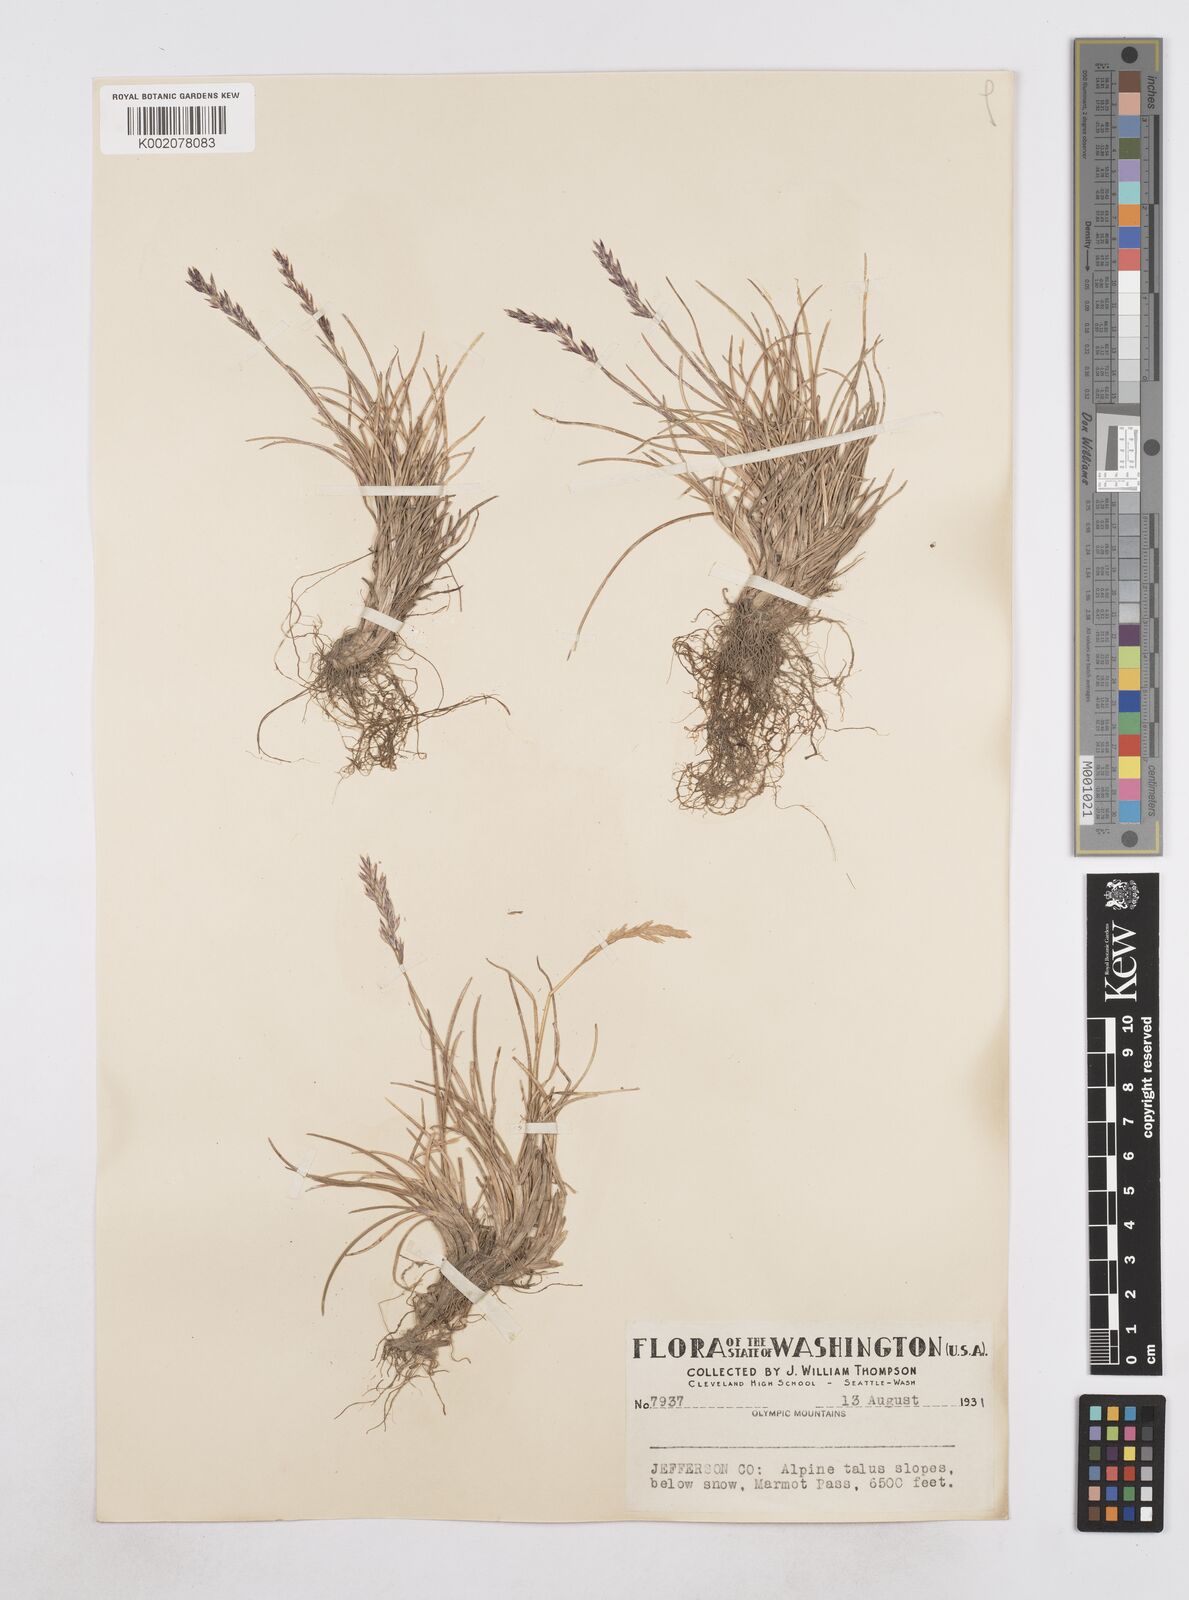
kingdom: Plantae
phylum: Tracheophyta
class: Liliopsida
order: Poales
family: Poaceae
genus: Poa
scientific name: Poa
